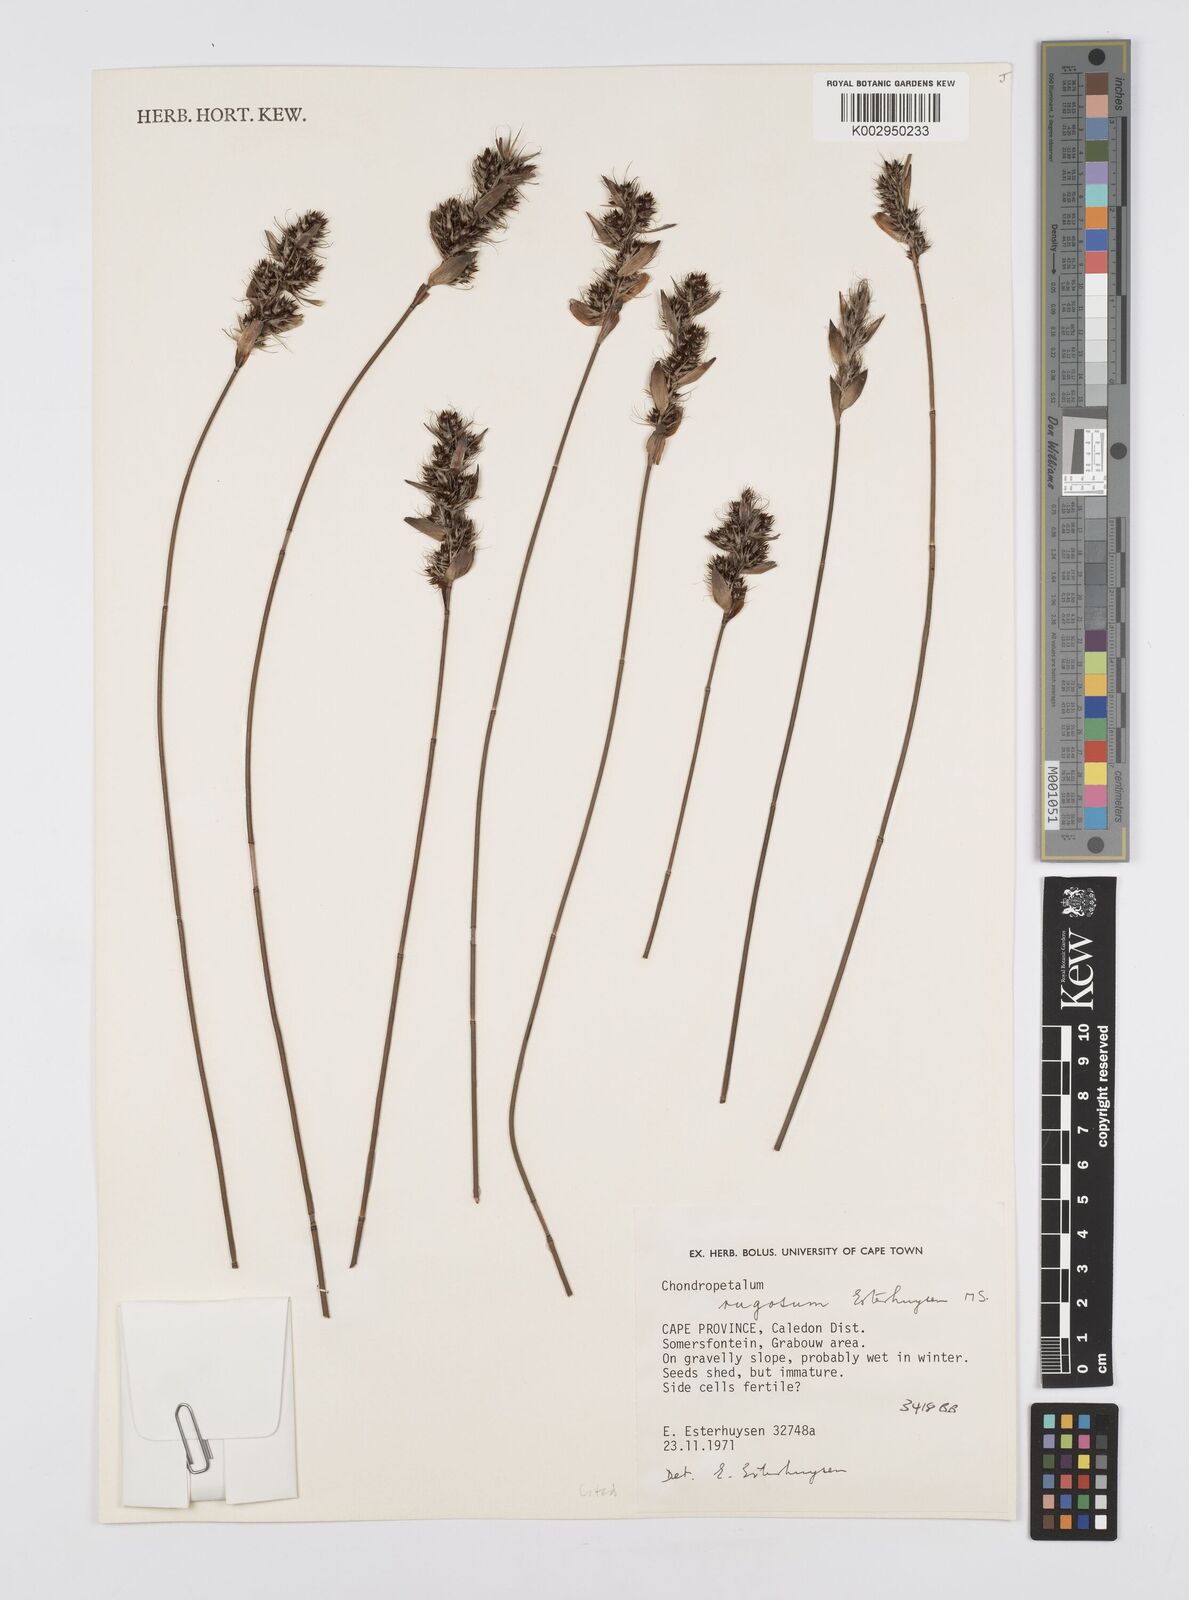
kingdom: Plantae
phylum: Tracheophyta
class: Liliopsida
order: Poales
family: Restionaceae
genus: Askidiosperma
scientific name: Askidiosperma rugosum
